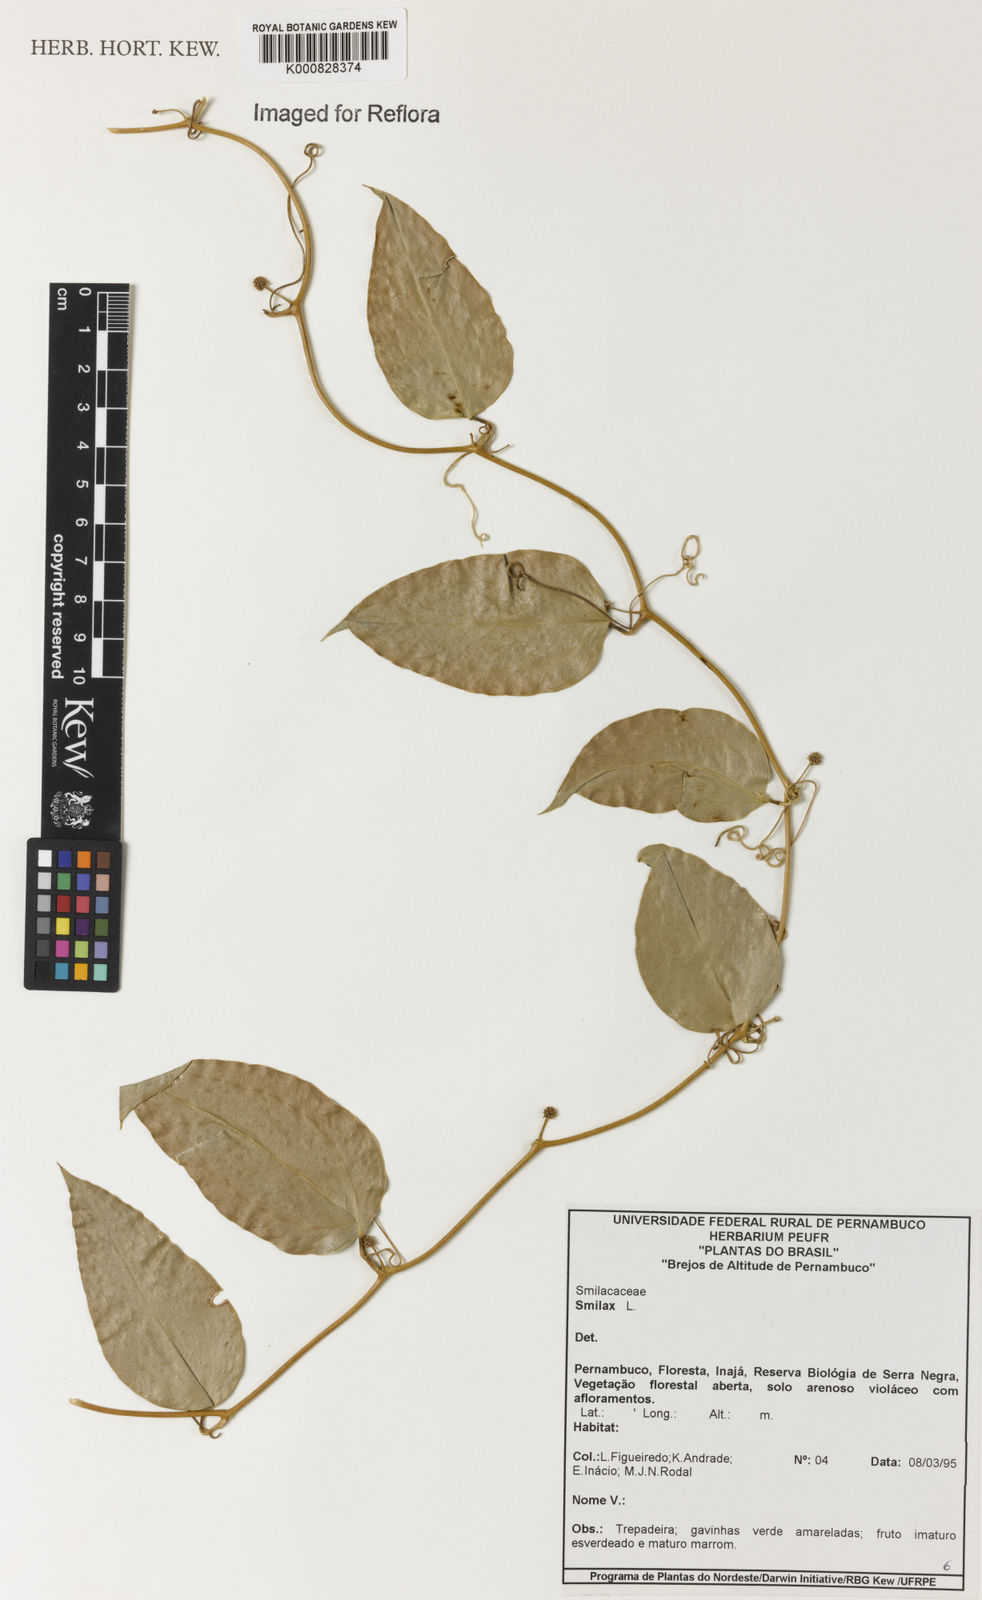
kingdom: Plantae
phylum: Tracheophyta
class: Liliopsida
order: Liliales
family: Smilacaceae
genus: Smilax
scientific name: Smilax
